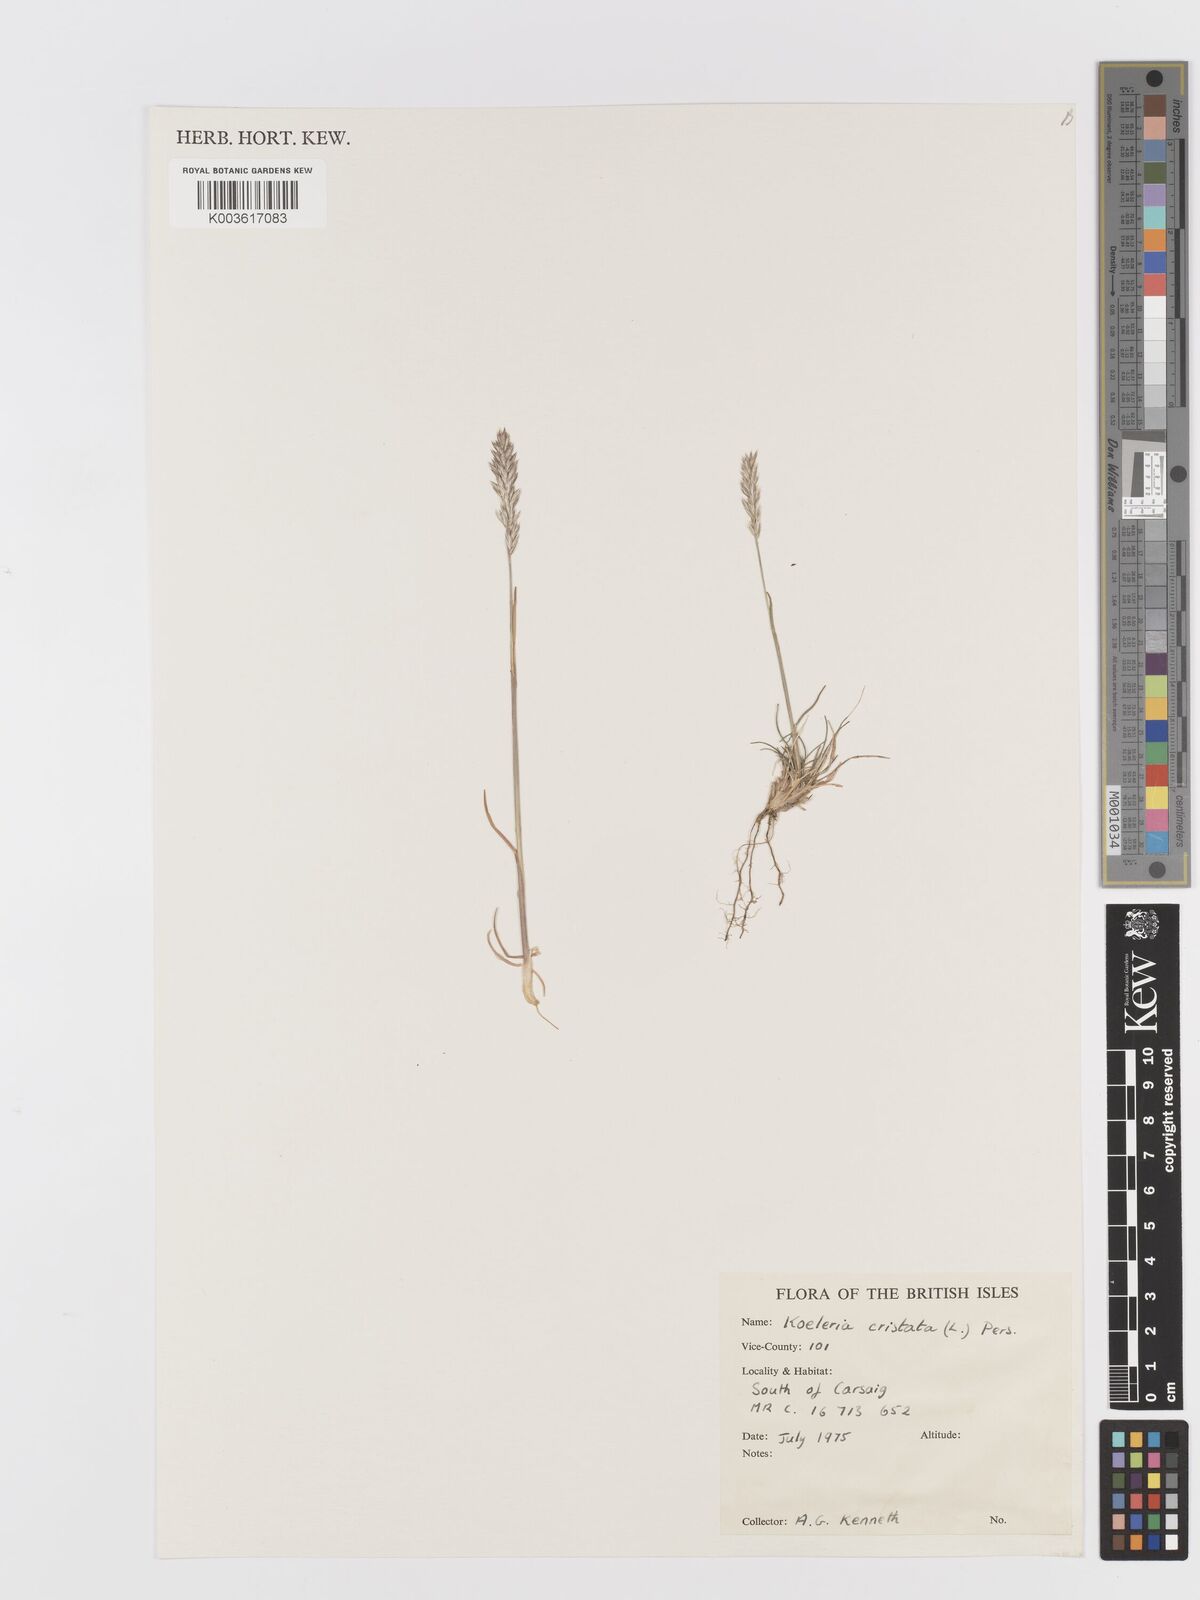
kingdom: Plantae
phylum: Tracheophyta
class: Liliopsida
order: Poales
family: Poaceae
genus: Koeleria
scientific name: Koeleria nitidula
